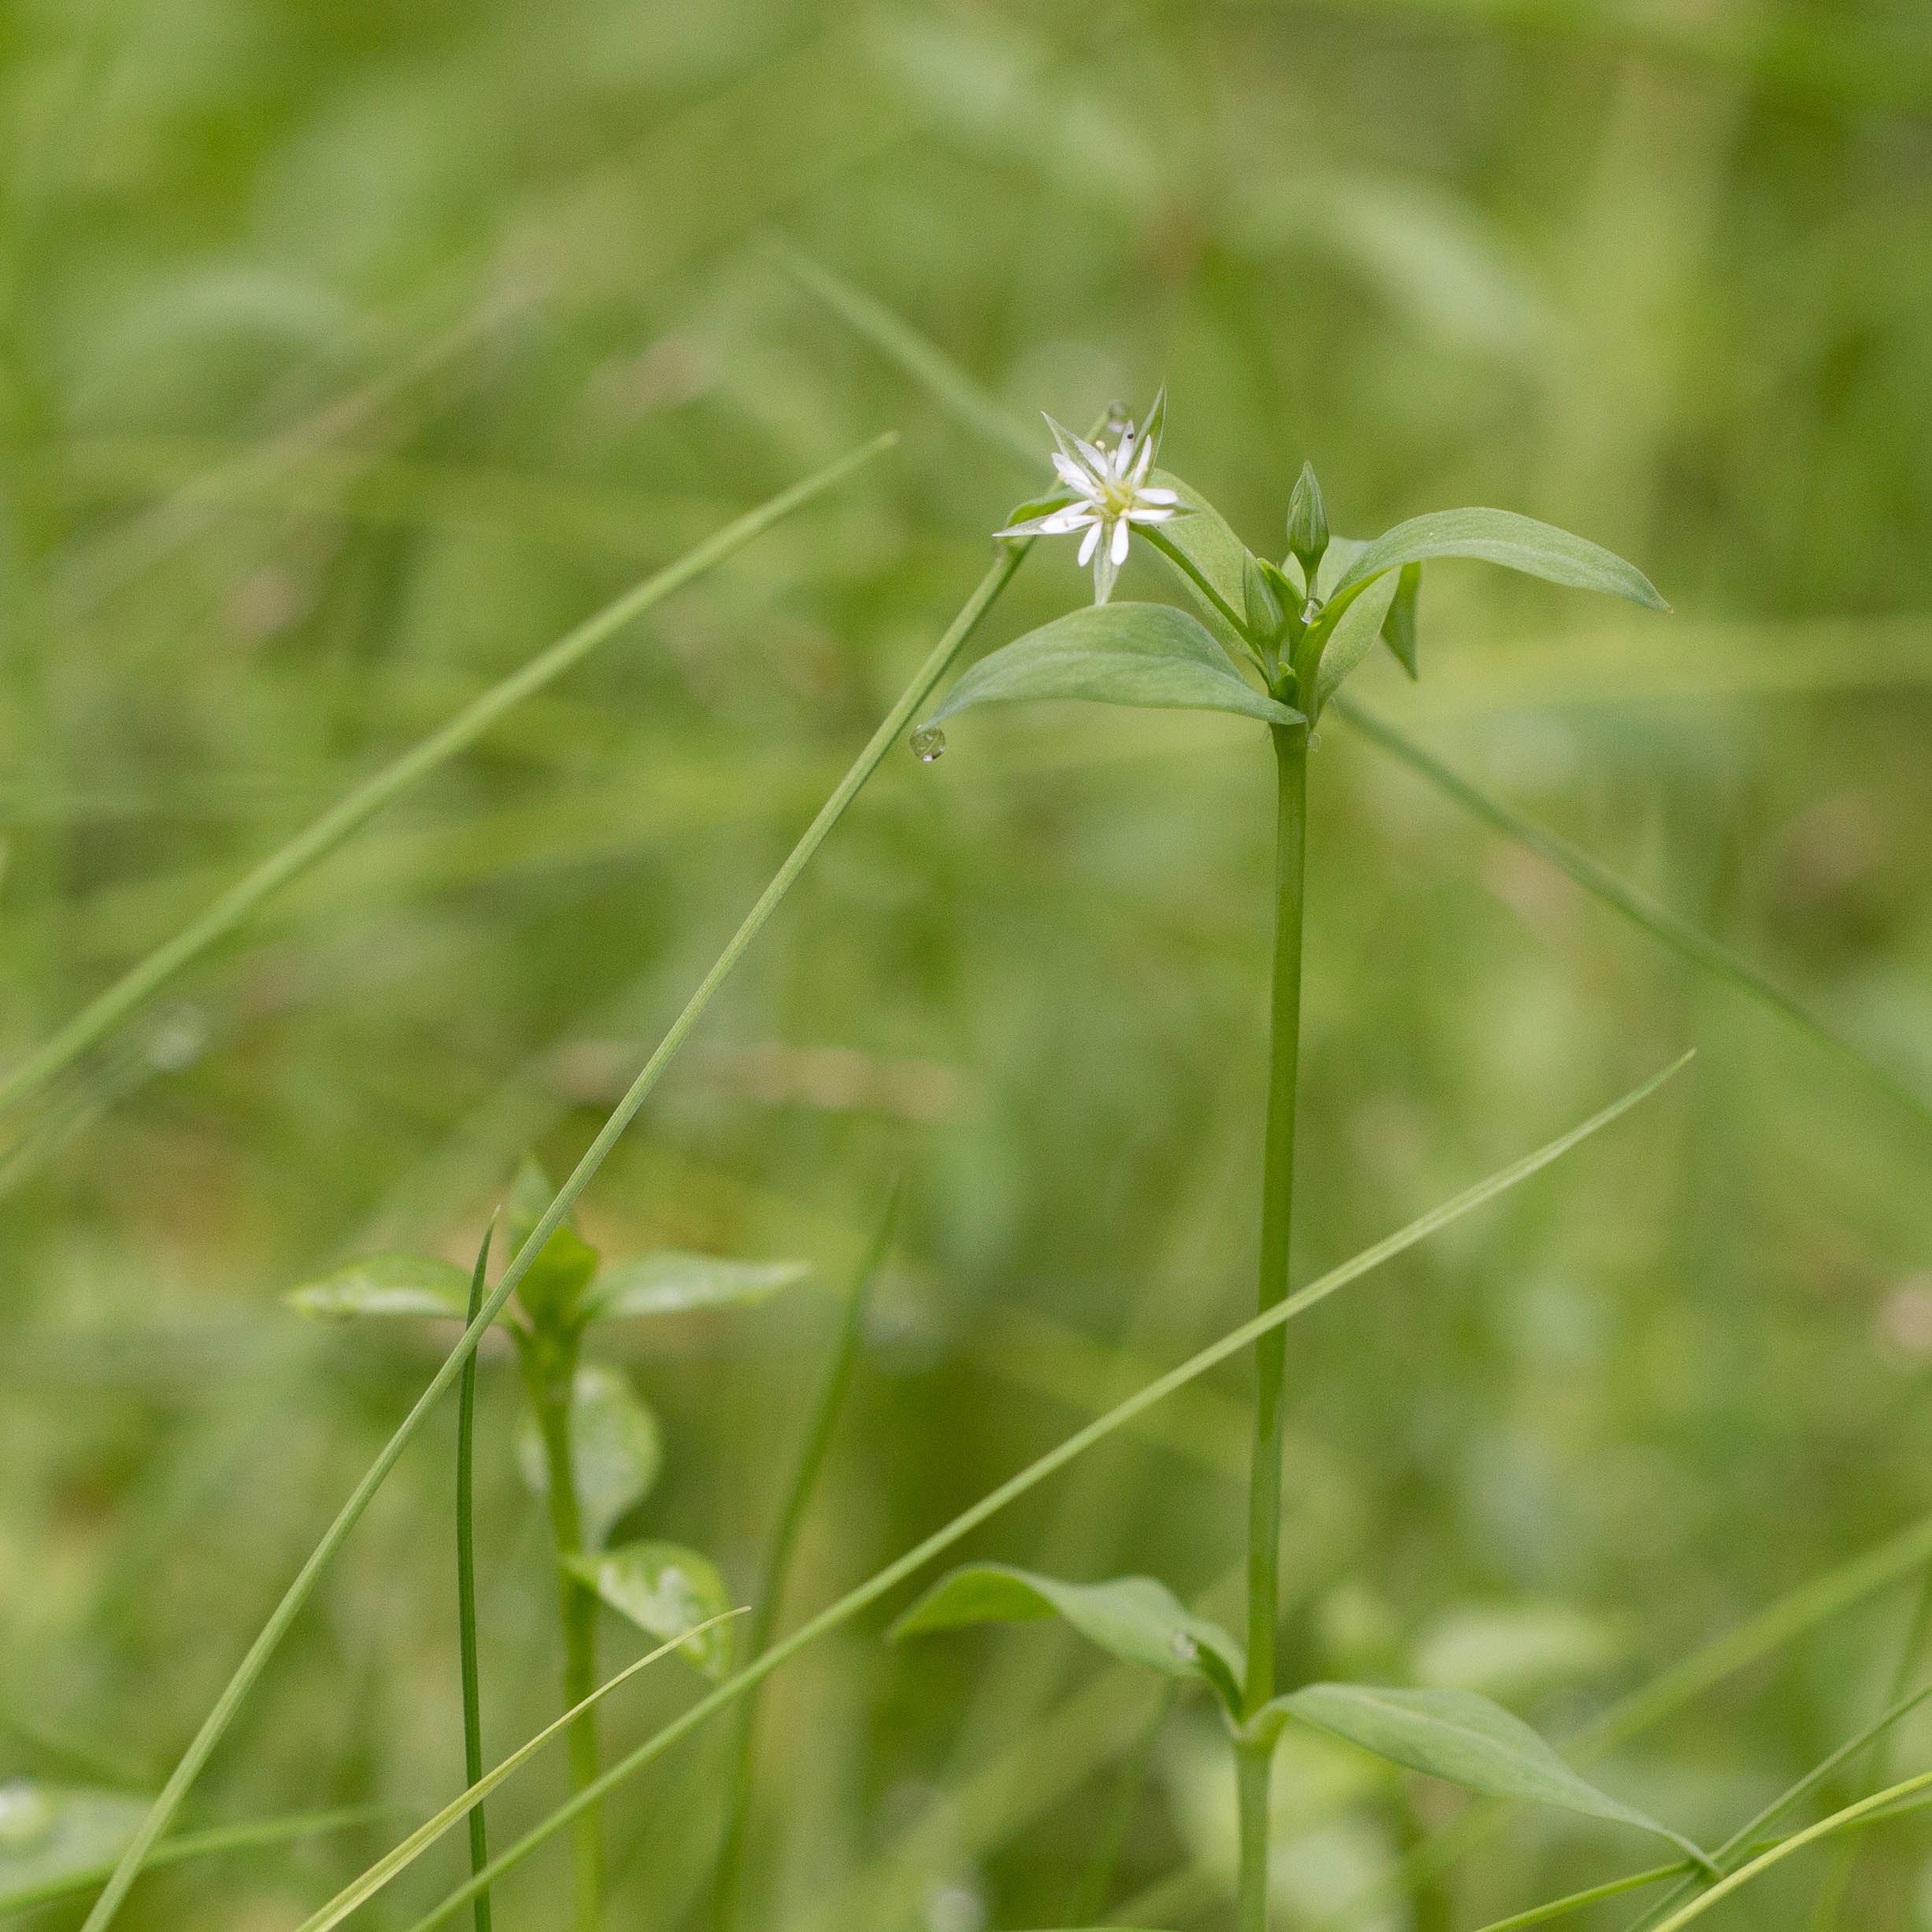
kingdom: Plantae
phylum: Tracheophyta
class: Magnoliopsida
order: Caryophyllales
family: Caryophyllaceae
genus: Stellaria
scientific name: Stellaria alsine
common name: Sump-fladstjerne
